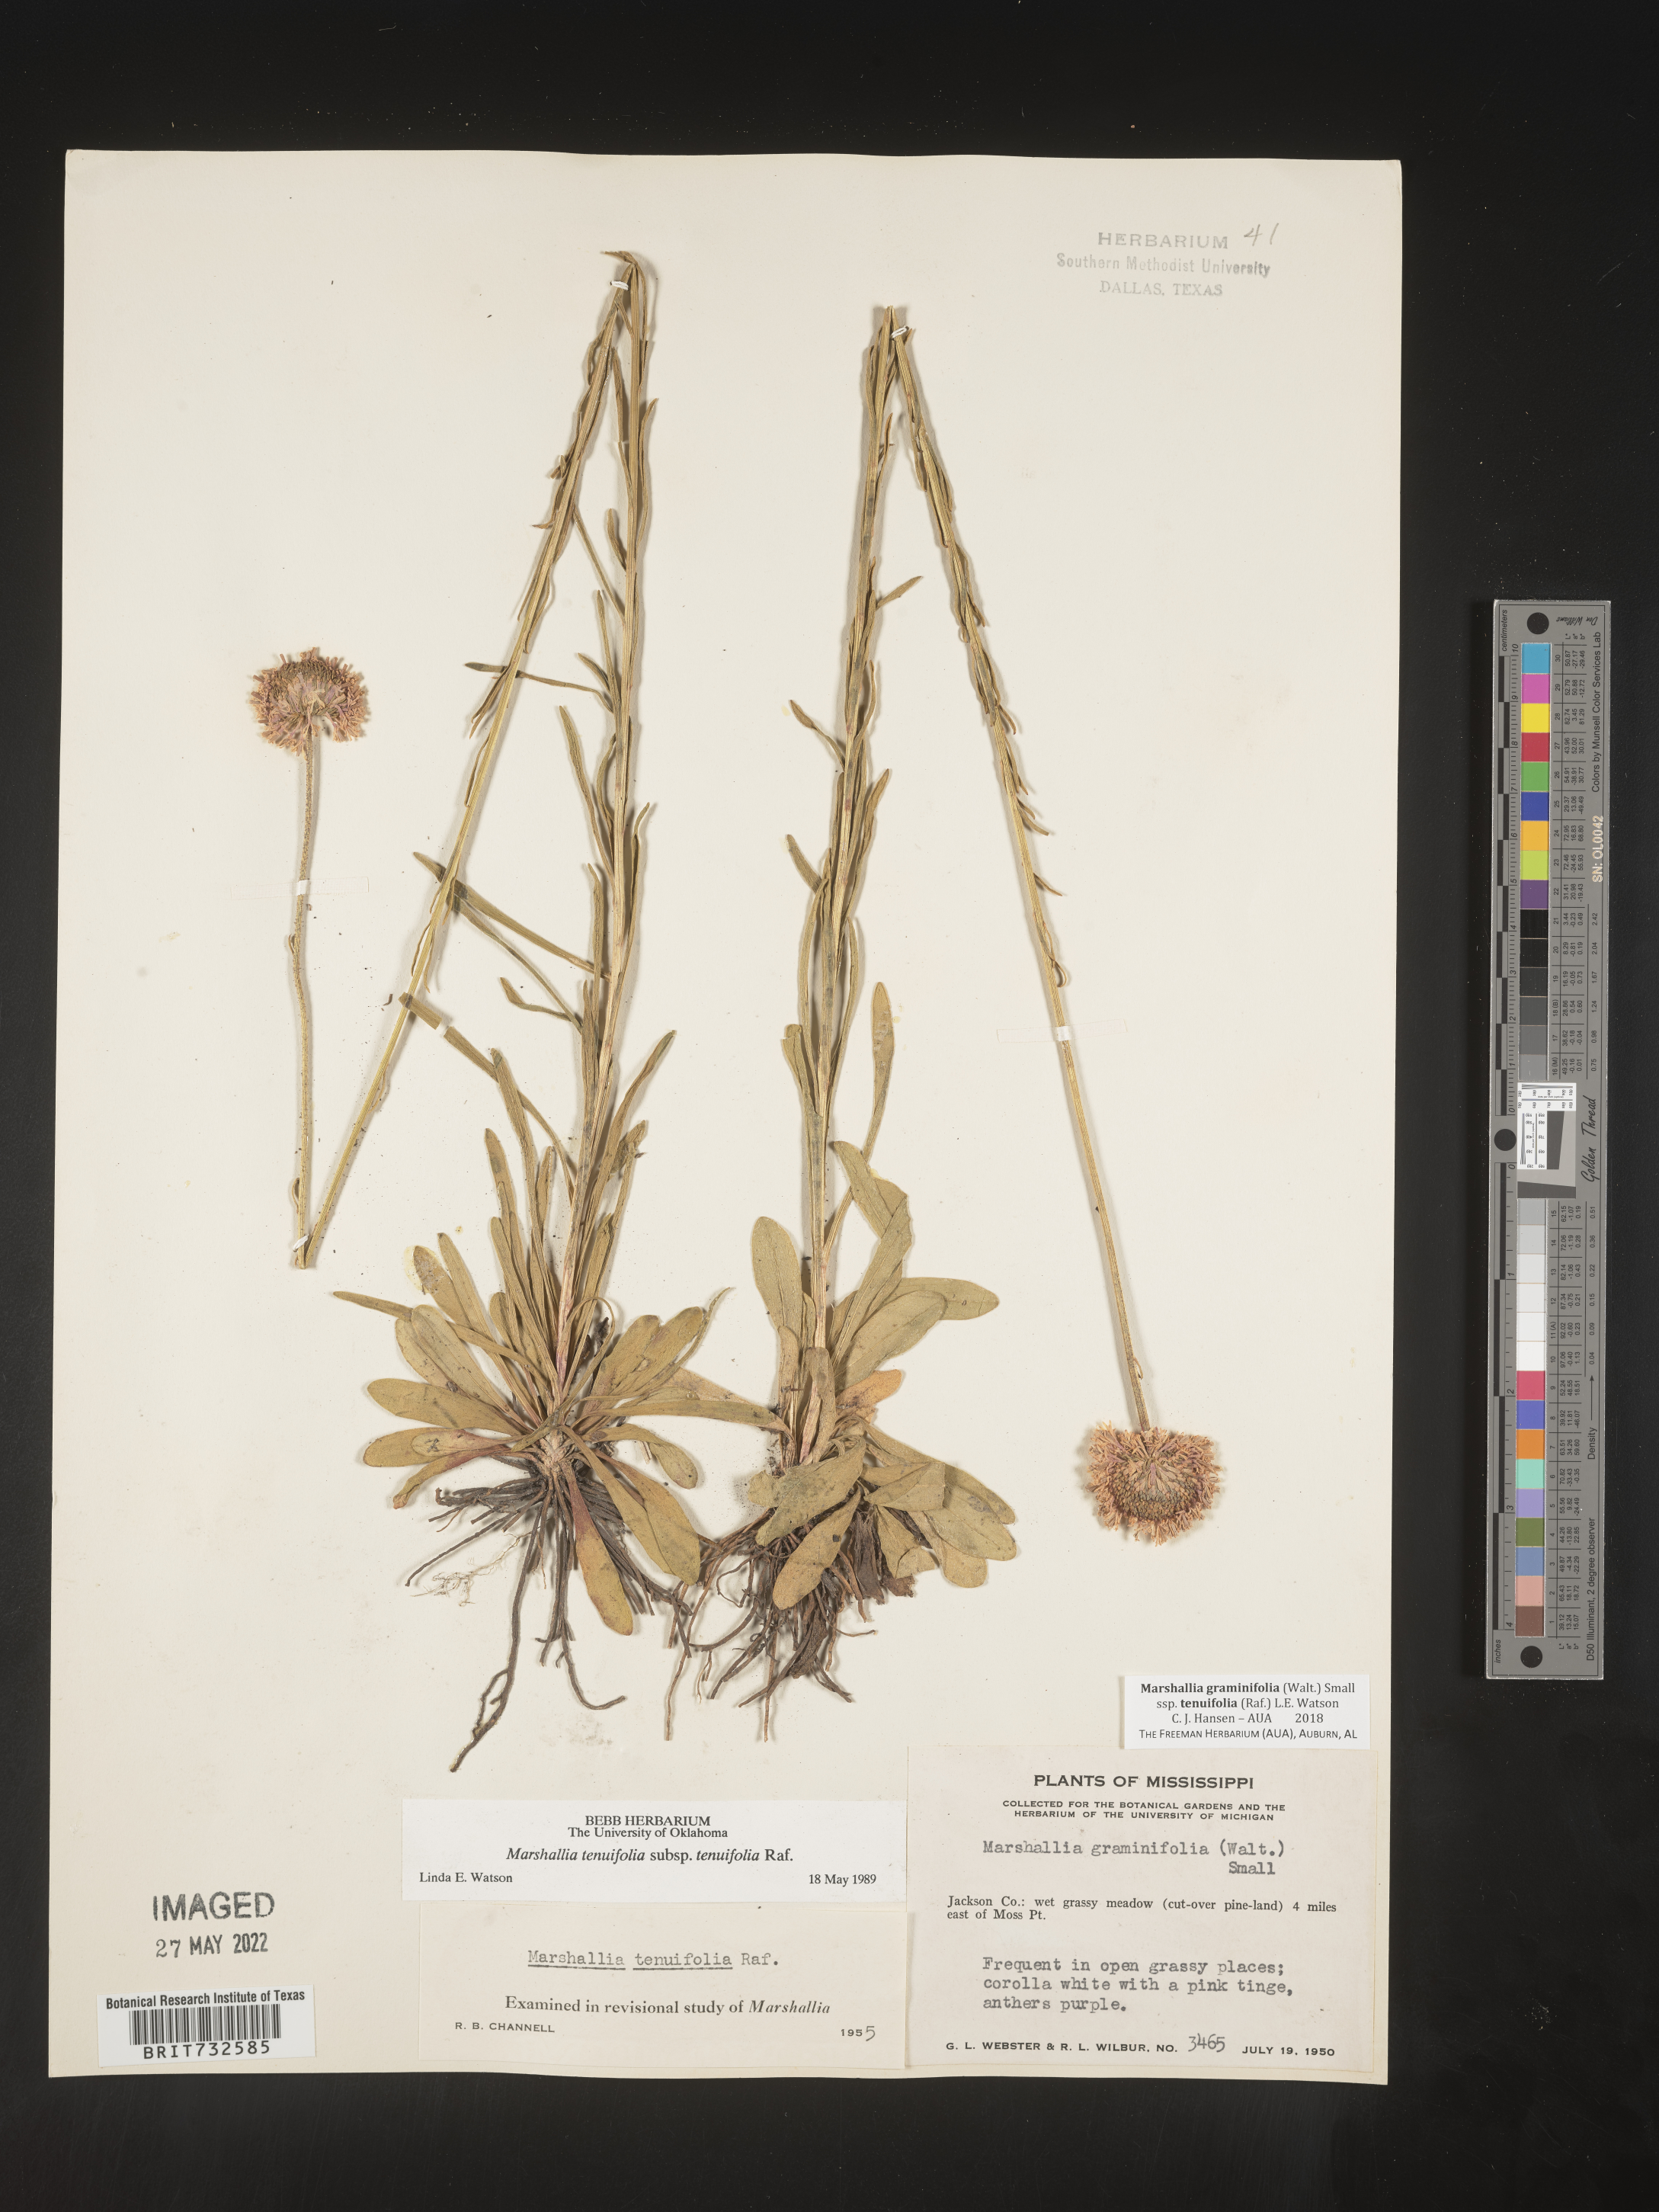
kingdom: Plantae
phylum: Tracheophyta
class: Magnoliopsida
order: Asterales
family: Asteraceae
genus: Marshallia
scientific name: Marshallia graminifolia
